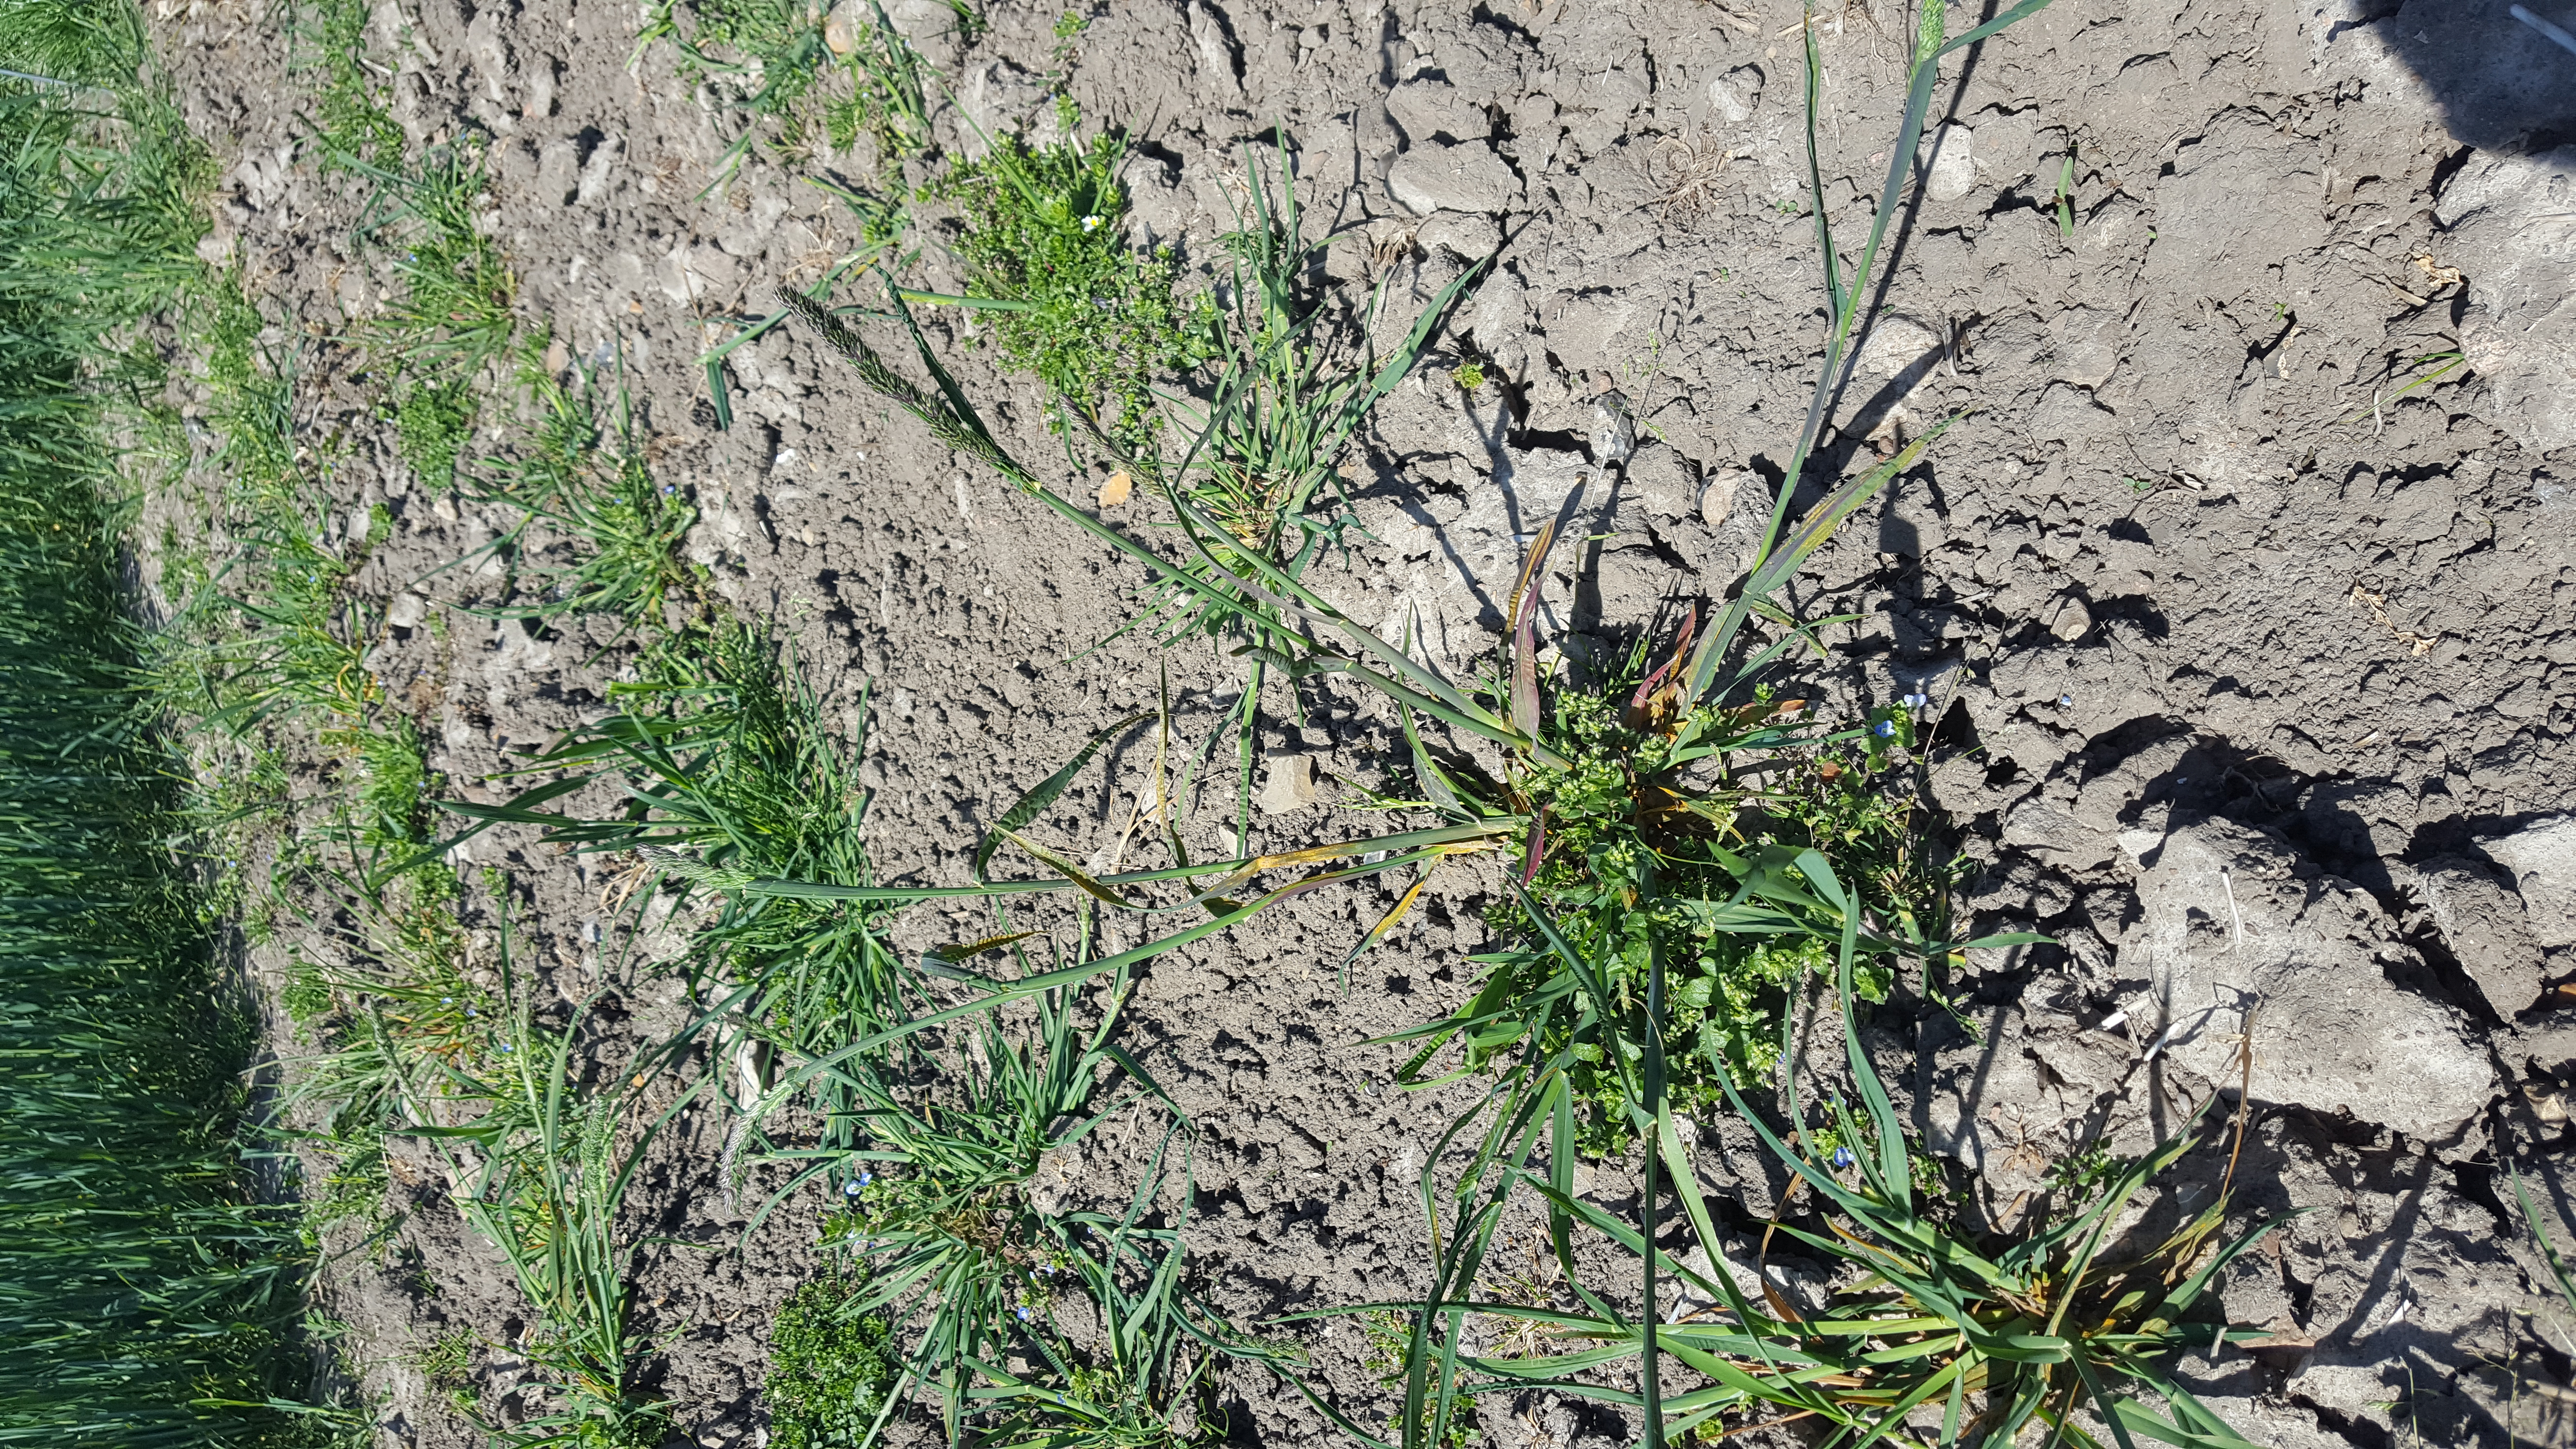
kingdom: Plantae
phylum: Tracheophyta
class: Liliopsida
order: Poales
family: Poaceae
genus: Dactylis
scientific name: Dactylis glomerata
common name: Orchardgrass
